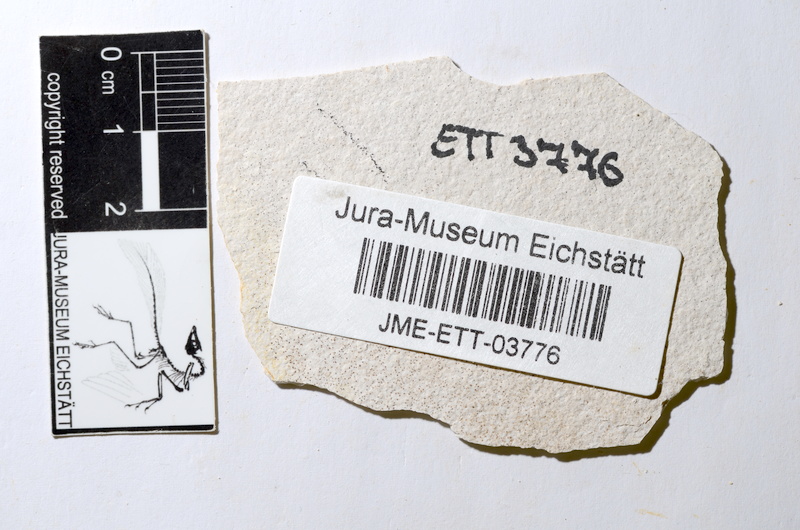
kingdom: Animalia
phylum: Chordata
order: Salmoniformes
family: Orthogonikleithridae
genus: Orthogonikleithrus
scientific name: Orthogonikleithrus hoelli
